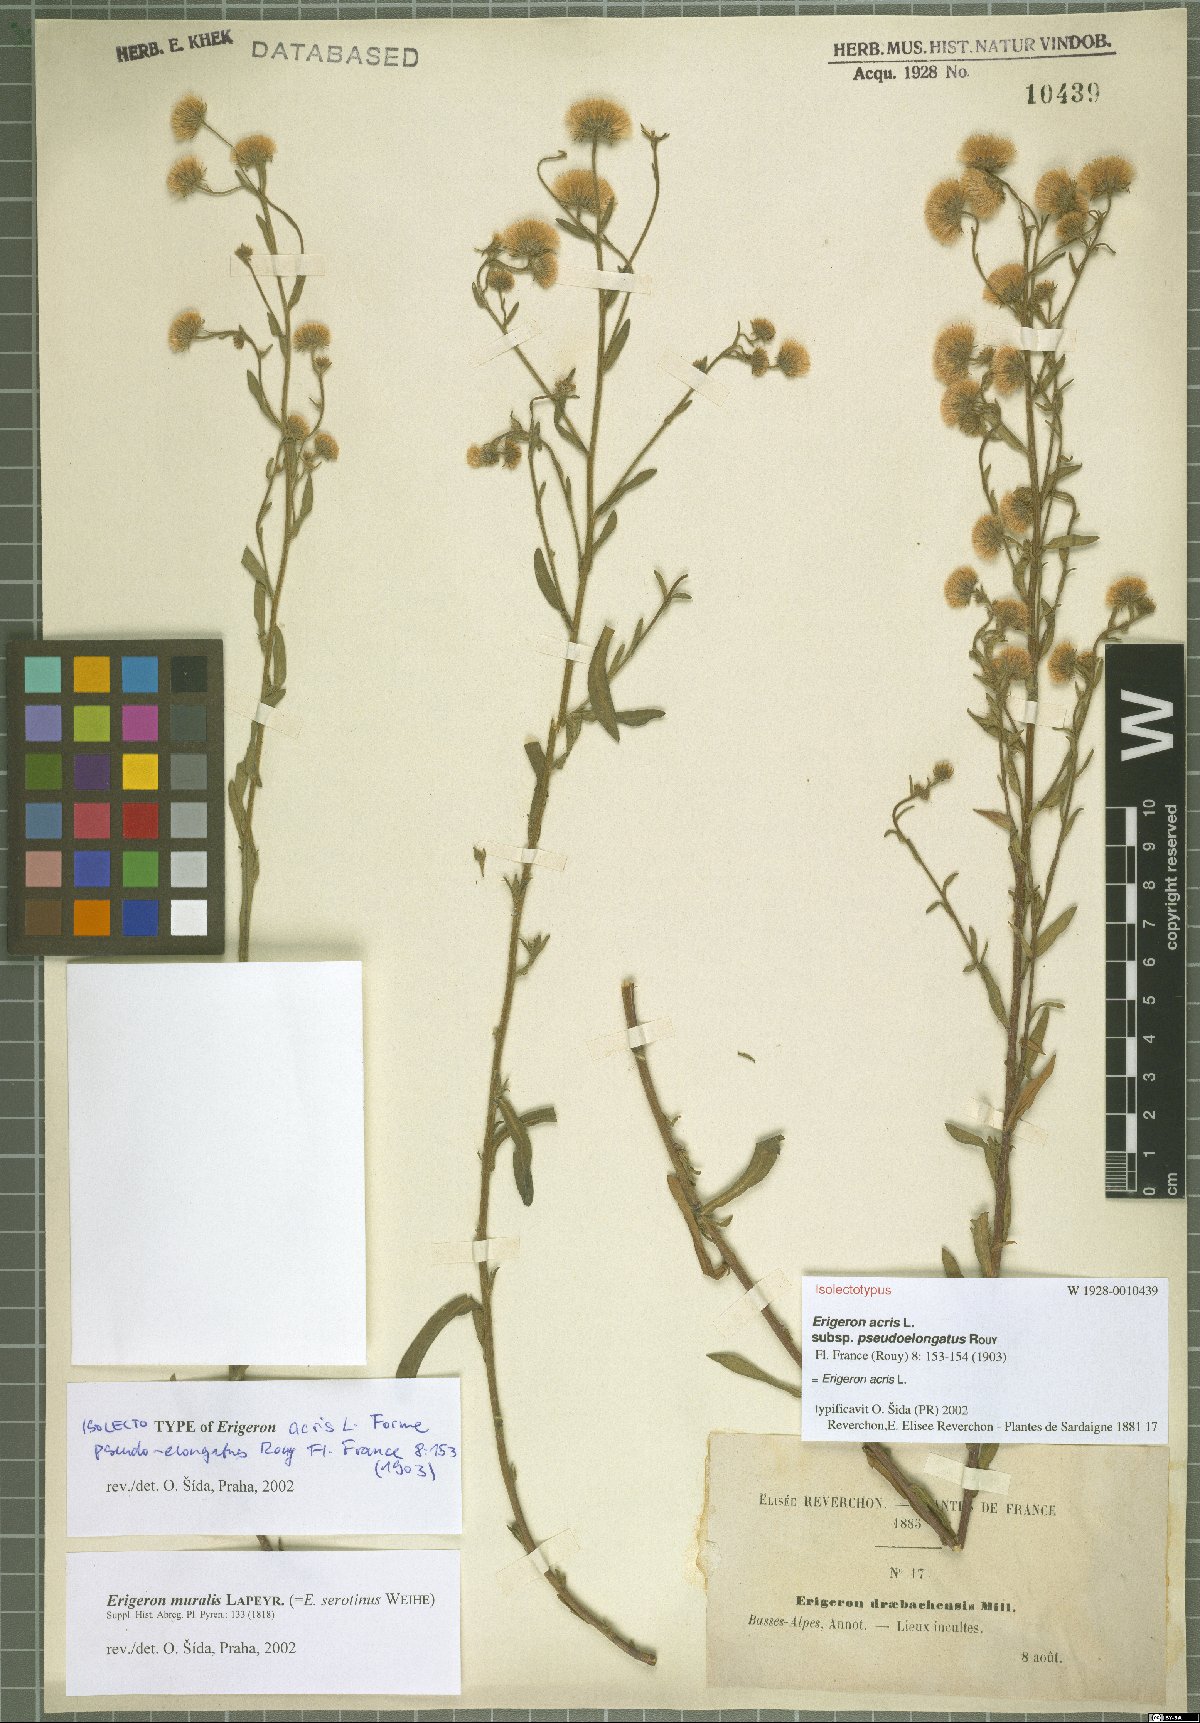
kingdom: Plantae
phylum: Tracheophyta
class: Magnoliopsida
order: Asterales
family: Asteraceae
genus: Erigeron
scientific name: Erigeron acris
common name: Blue fleabane
